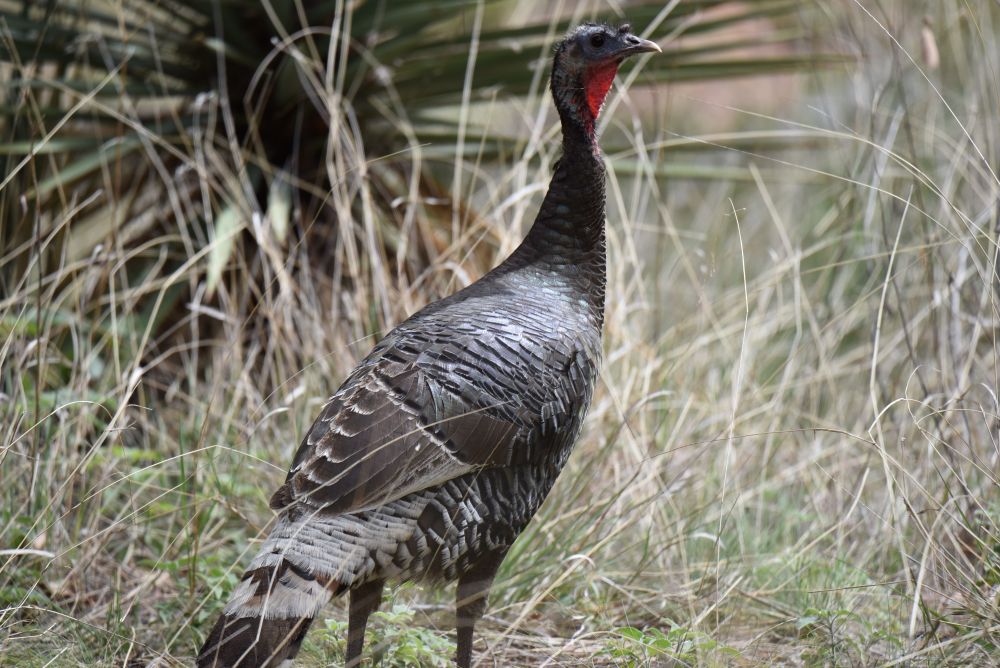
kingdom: Animalia
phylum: Chordata
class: Aves
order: Galliformes
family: Phasianidae
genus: Meleagris
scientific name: Meleagris gallopavo
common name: Wild turkey
